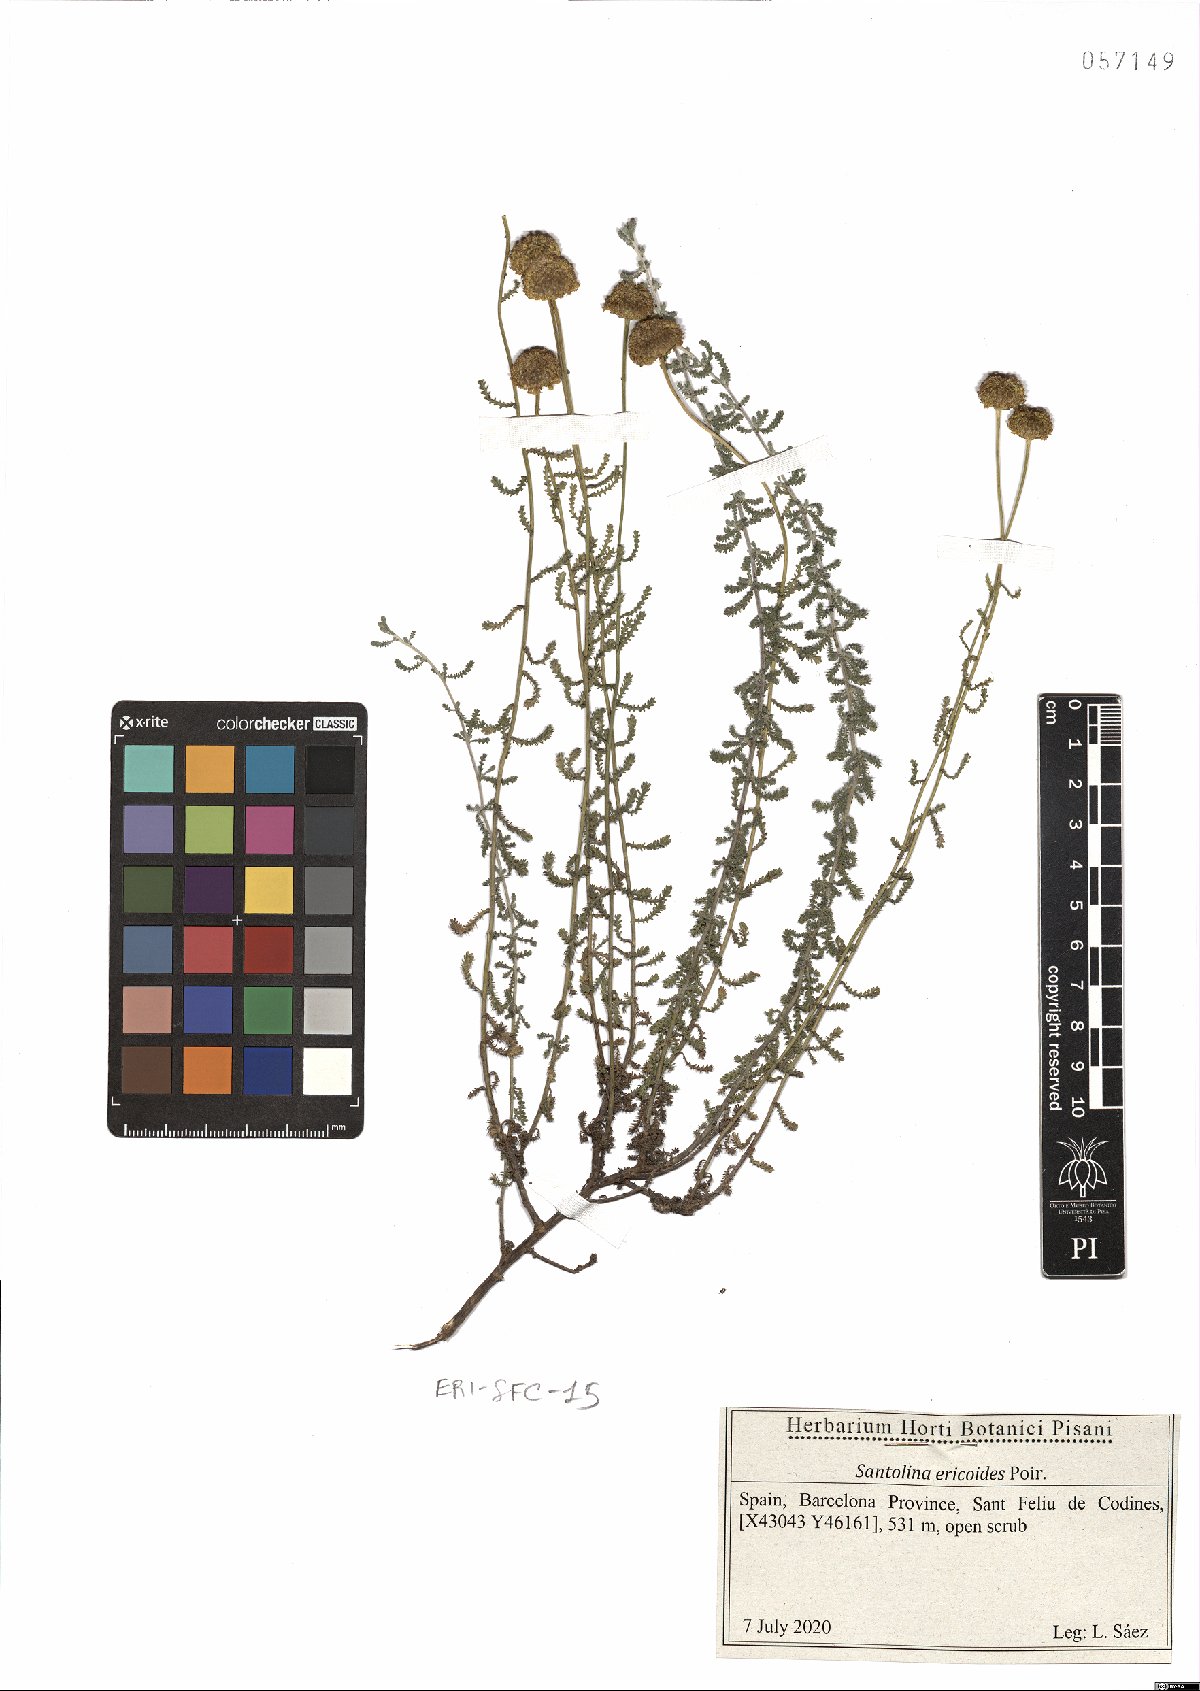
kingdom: Plantae
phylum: Tracheophyta
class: Magnoliopsida
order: Asterales
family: Asteraceae
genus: Santolina
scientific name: Santolina ericoides
